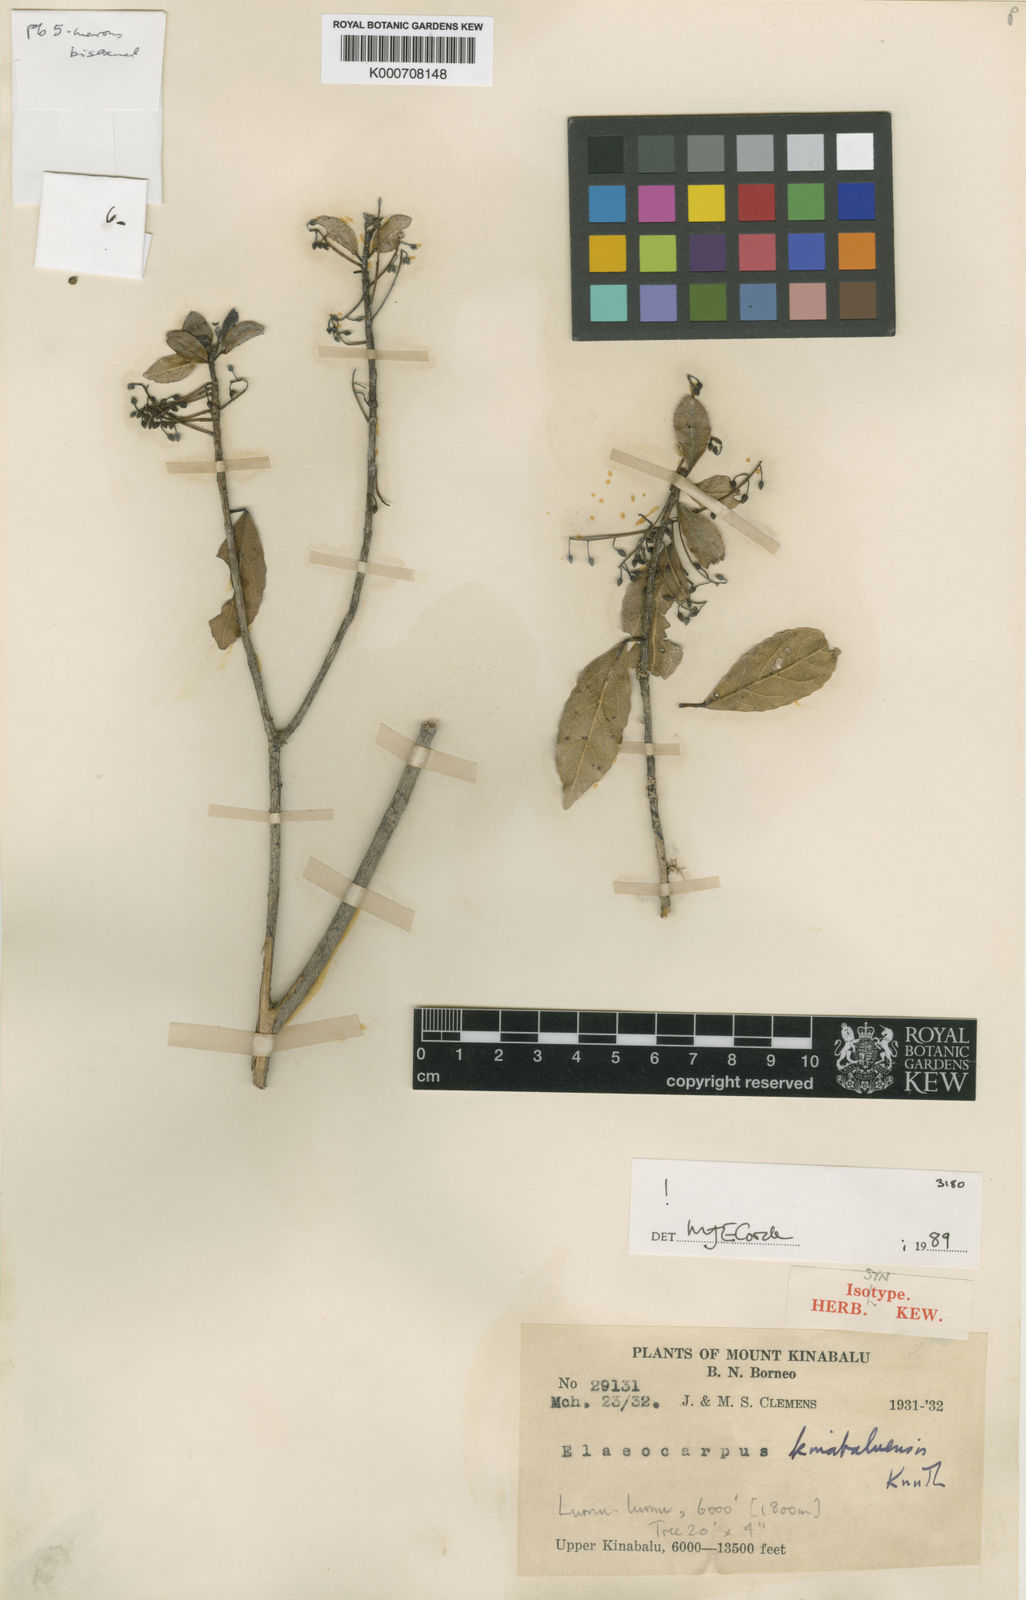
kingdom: Plantae
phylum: Tracheophyta
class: Magnoliopsida
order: Oxalidales
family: Elaeocarpaceae
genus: Elaeocarpus
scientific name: Elaeocarpus kinabaluensis
